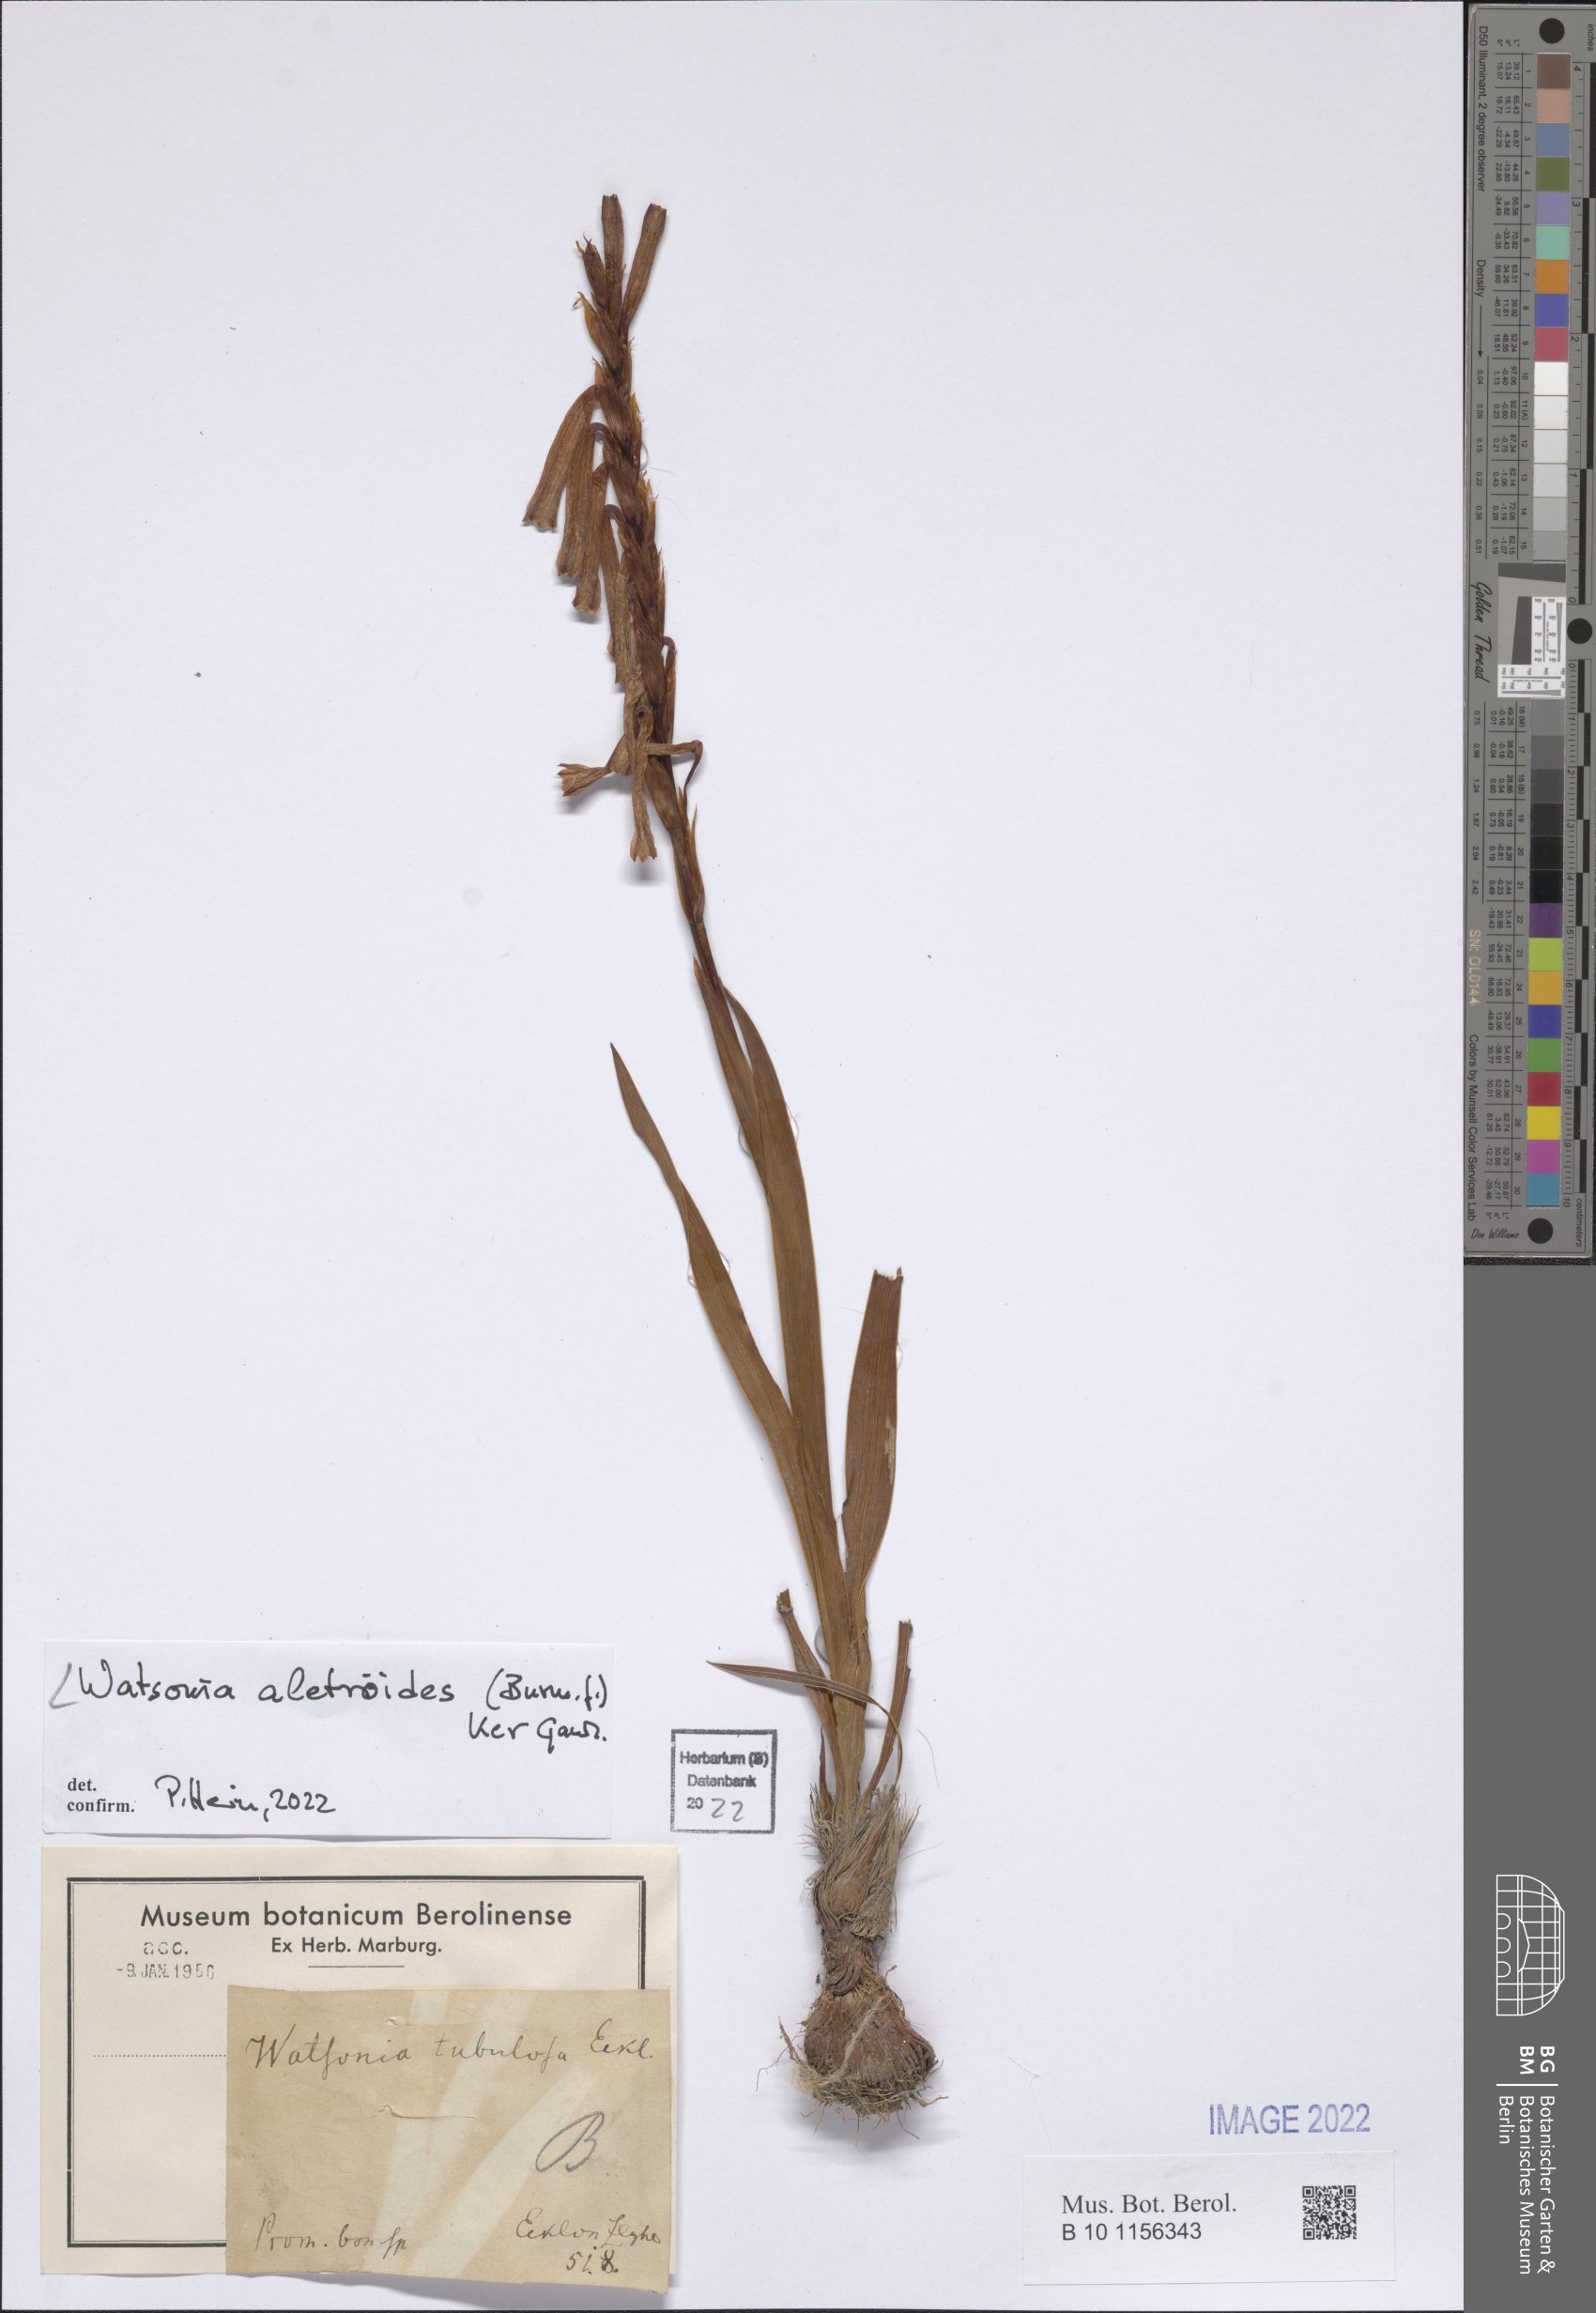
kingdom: Plantae
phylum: Tracheophyta
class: Liliopsida
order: Asparagales
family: Iridaceae
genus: Watsonia
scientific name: Watsonia aletroides
